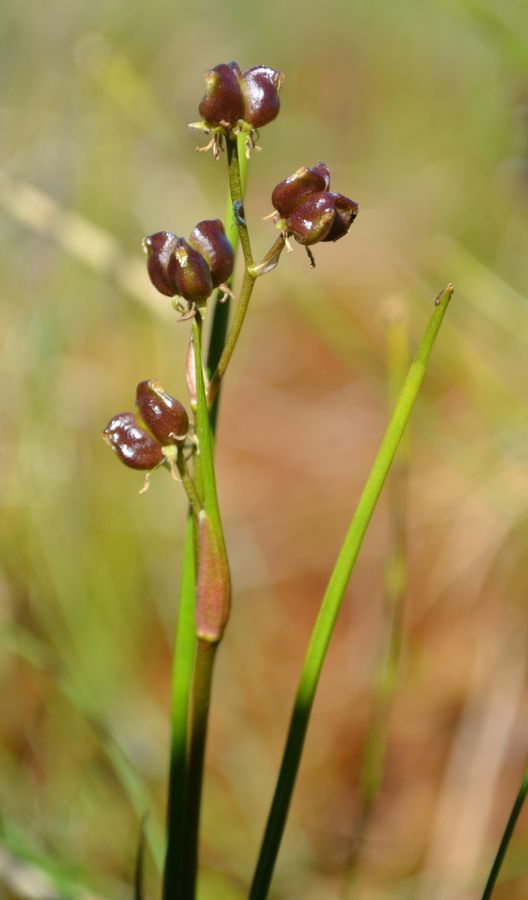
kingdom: Plantae
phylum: Tracheophyta
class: Liliopsida
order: Alismatales
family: Scheuchzeriaceae
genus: Scheuchzeria
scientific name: Scheuchzeria palustris
